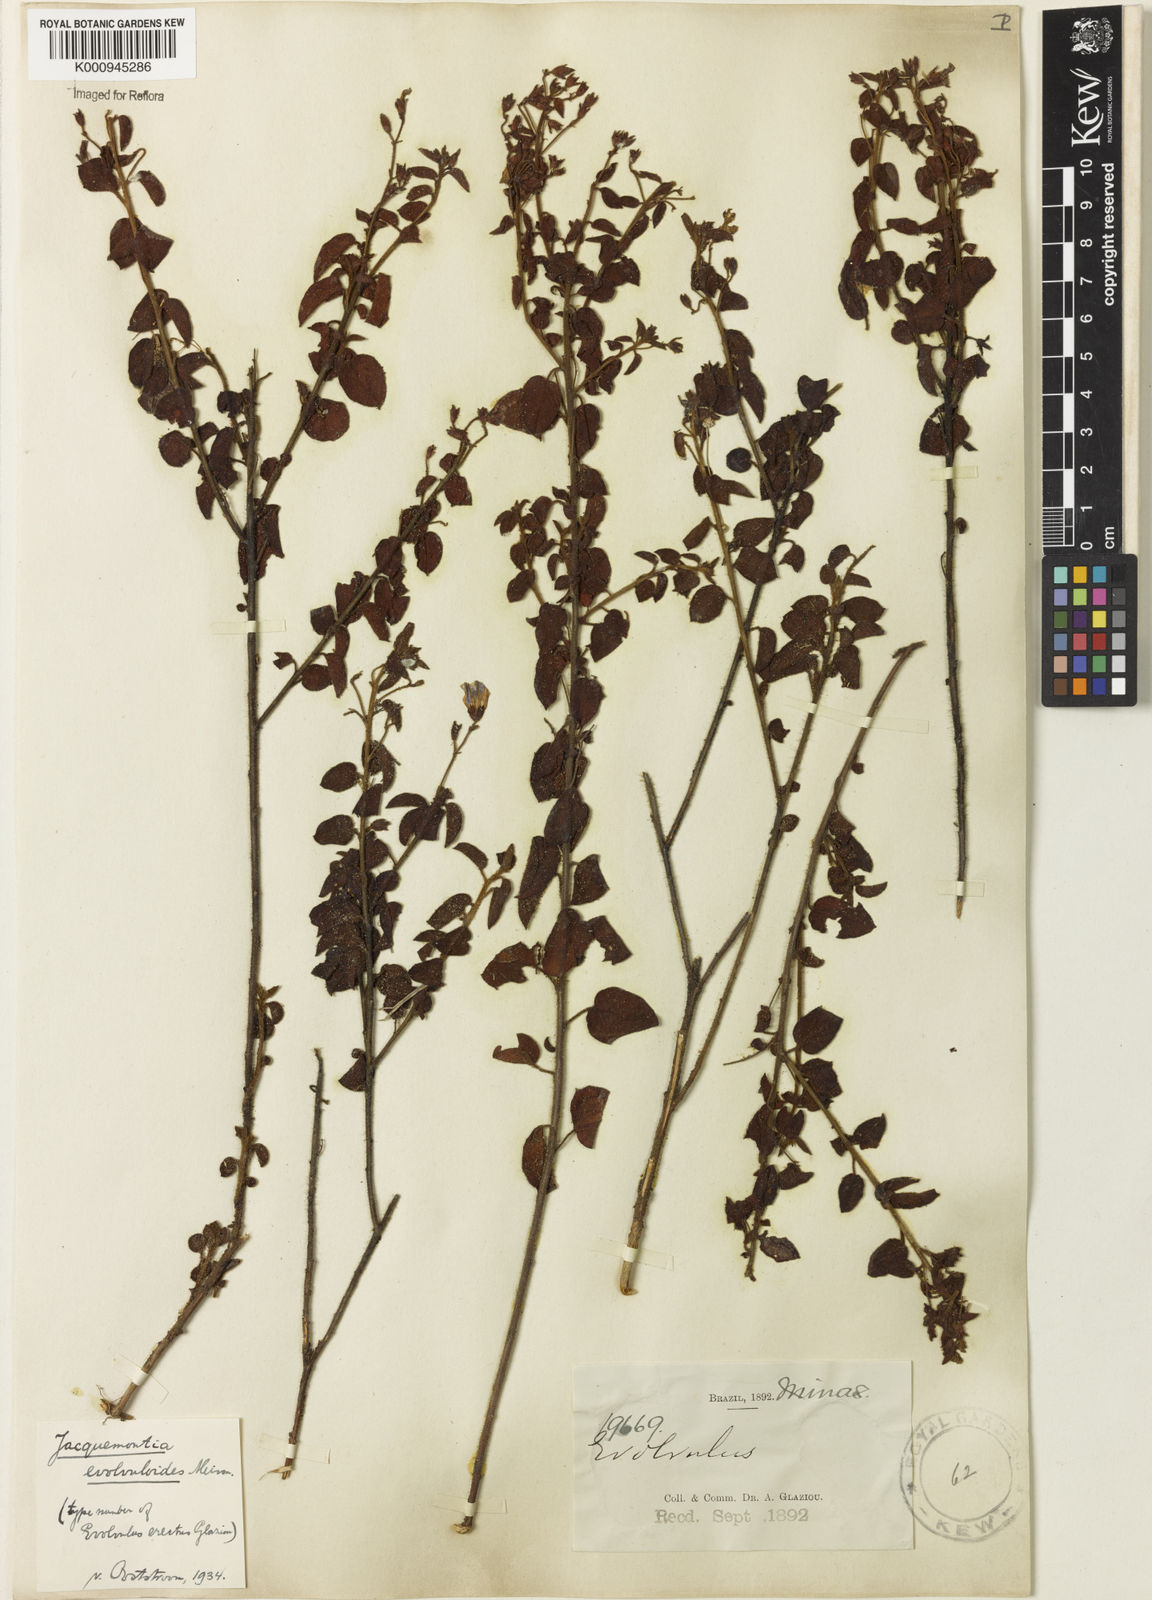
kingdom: Plantae
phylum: Tracheophyta
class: Magnoliopsida
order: Solanales
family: Convolvulaceae
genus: Jacquemontia
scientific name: Jacquemontia evolvuloides
